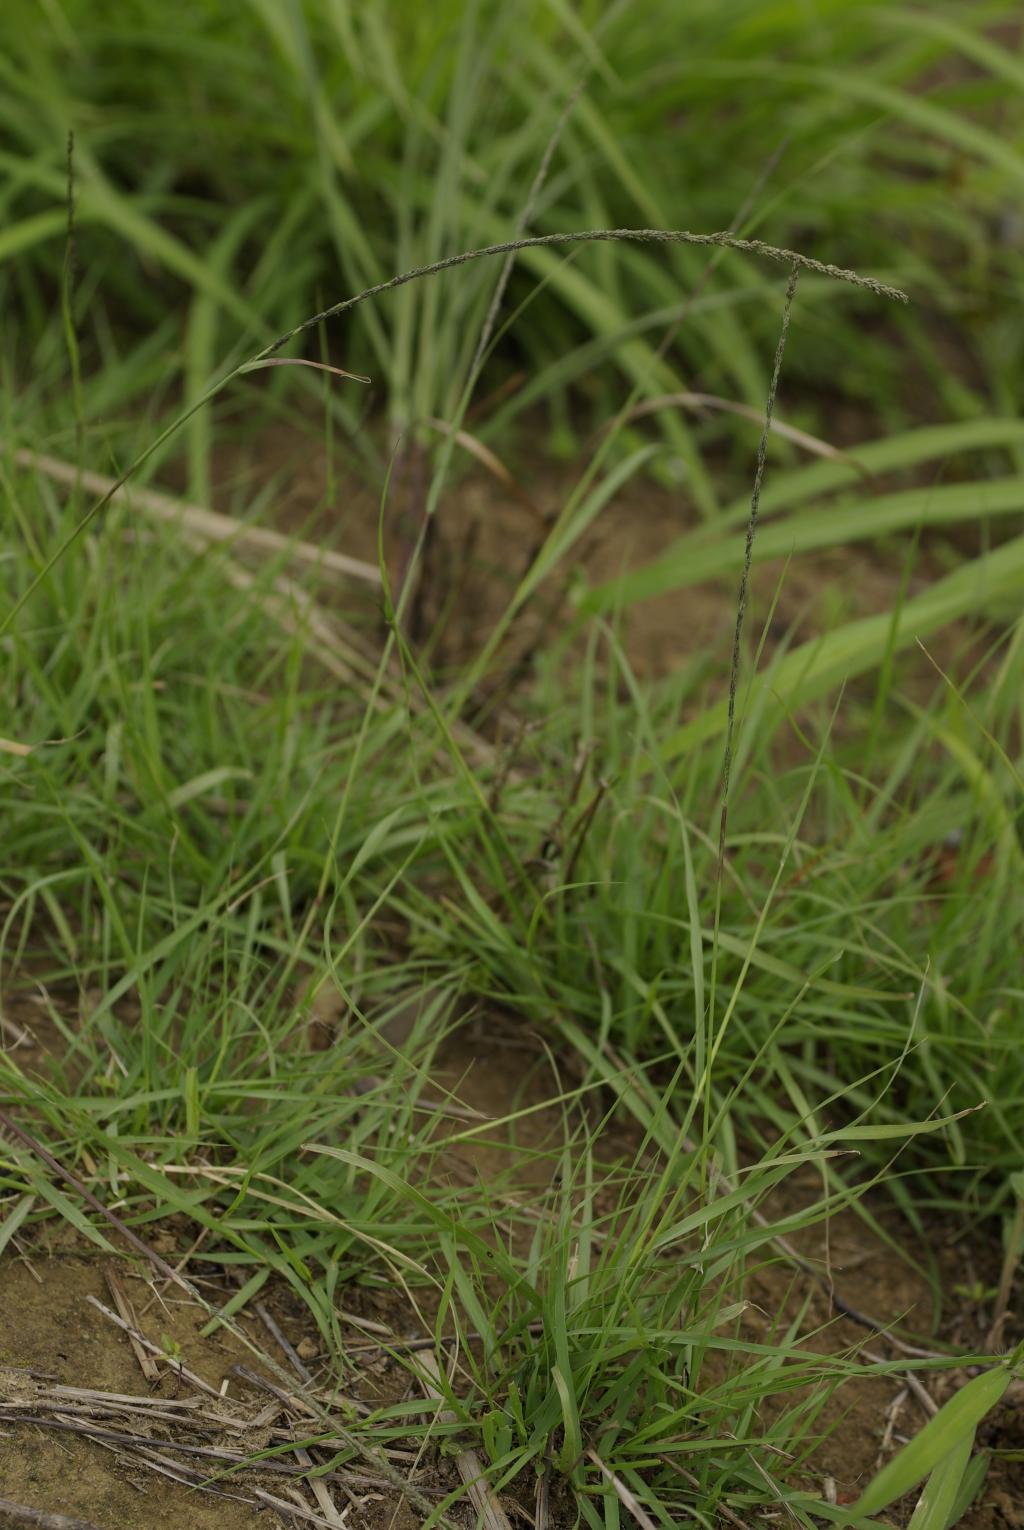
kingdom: Plantae
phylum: Tracheophyta
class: Liliopsida
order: Poales
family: Poaceae
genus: Sporobolus
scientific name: Sporobolus diandrus
